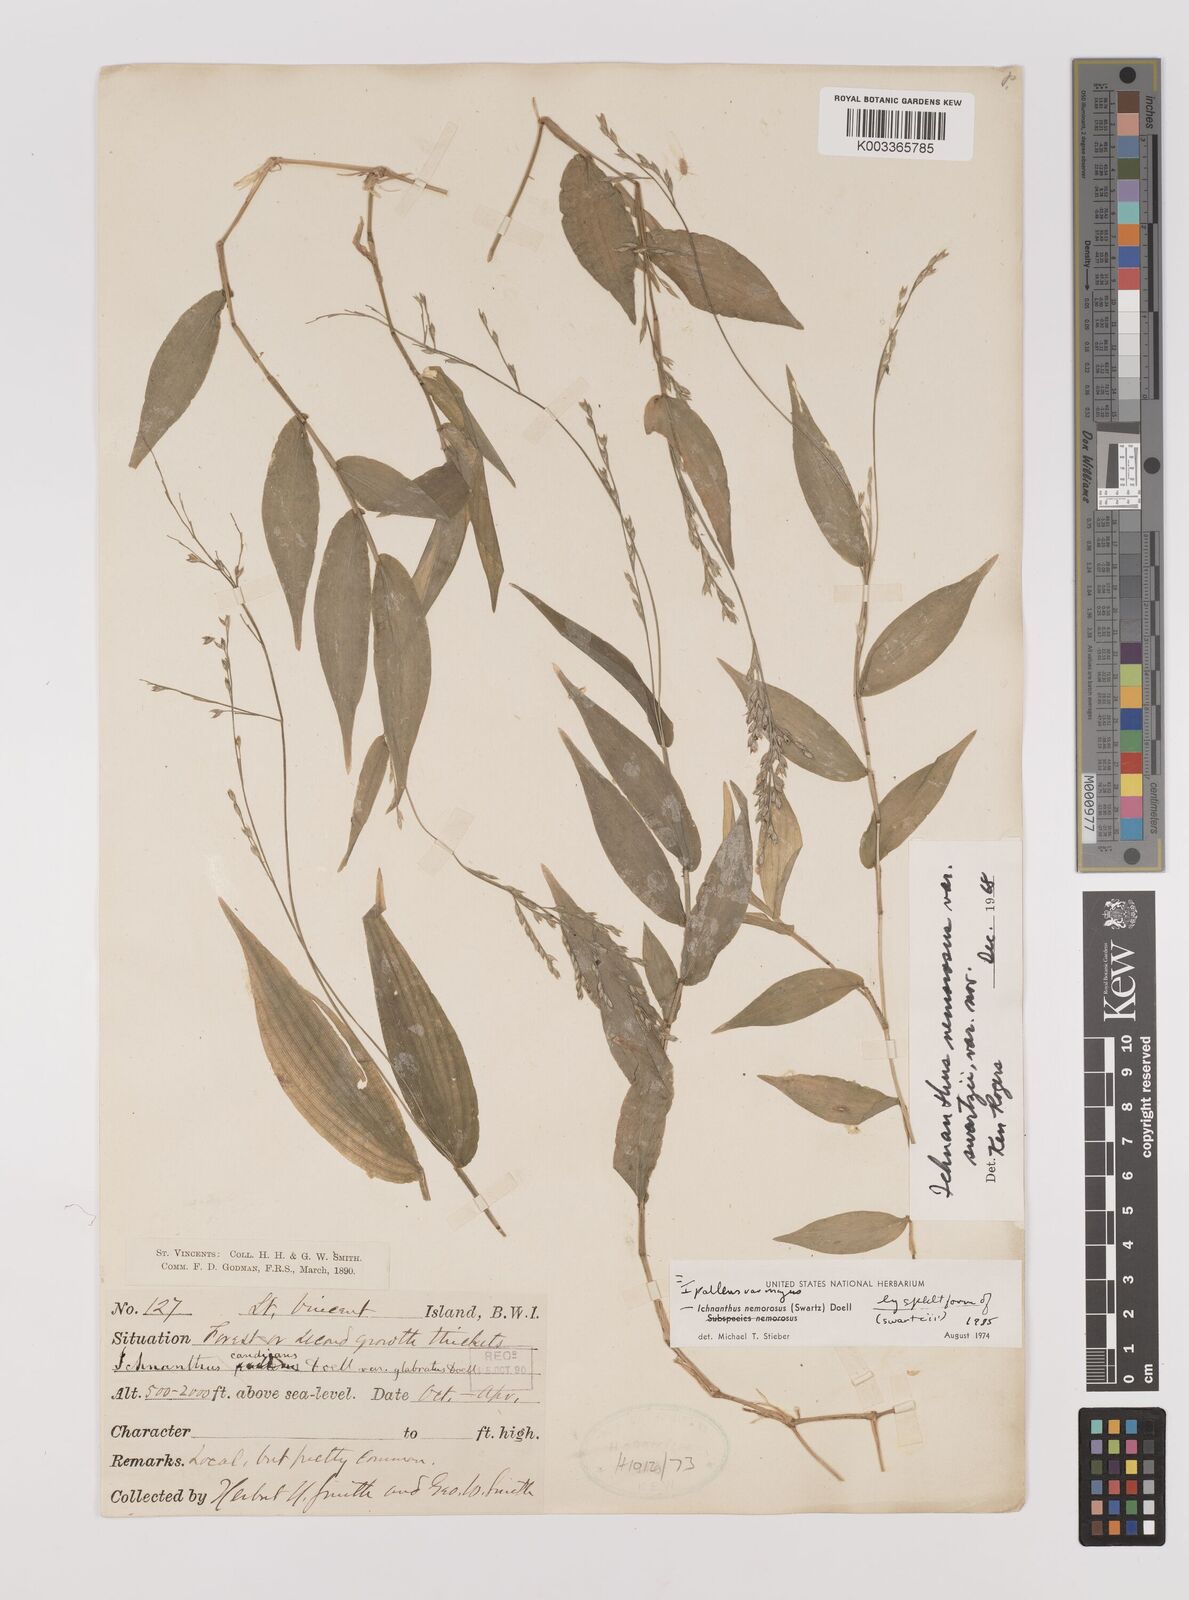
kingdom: Plantae
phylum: Tracheophyta
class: Liliopsida
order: Poales
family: Poaceae
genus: Ichnanthus
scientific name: Ichnanthus pallens
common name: Water grass
